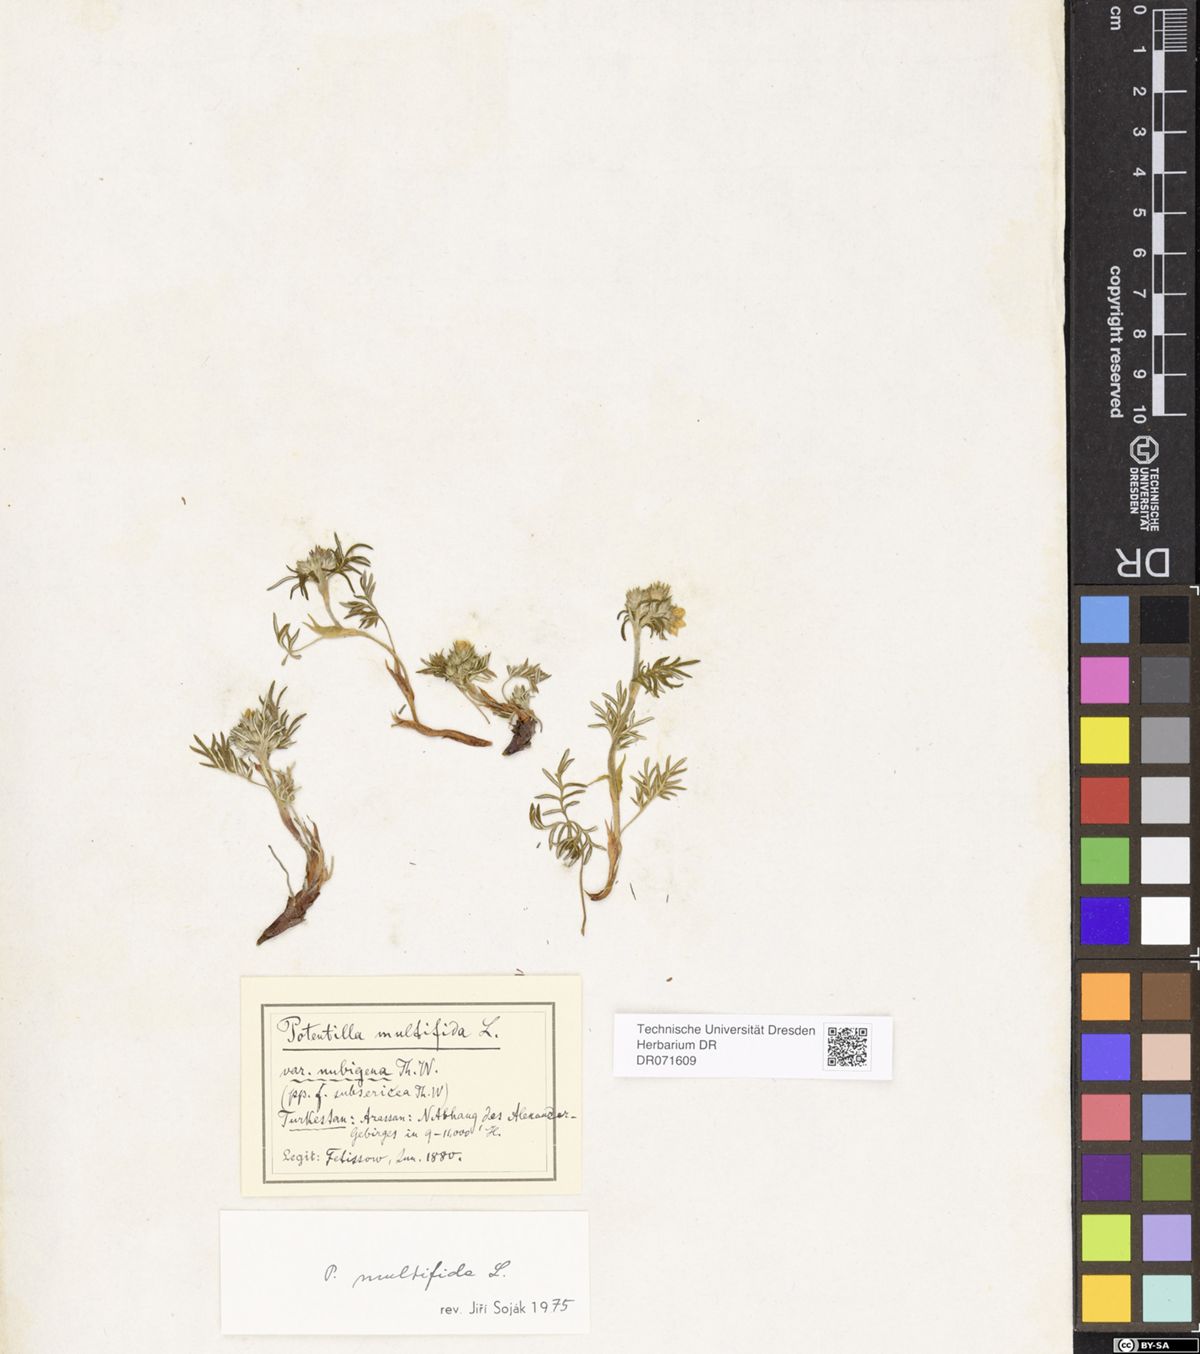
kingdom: Plantae
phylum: Tracheophyta
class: Magnoliopsida
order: Rosales
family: Rosaceae
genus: Potentilla
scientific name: Potentilla multifida
